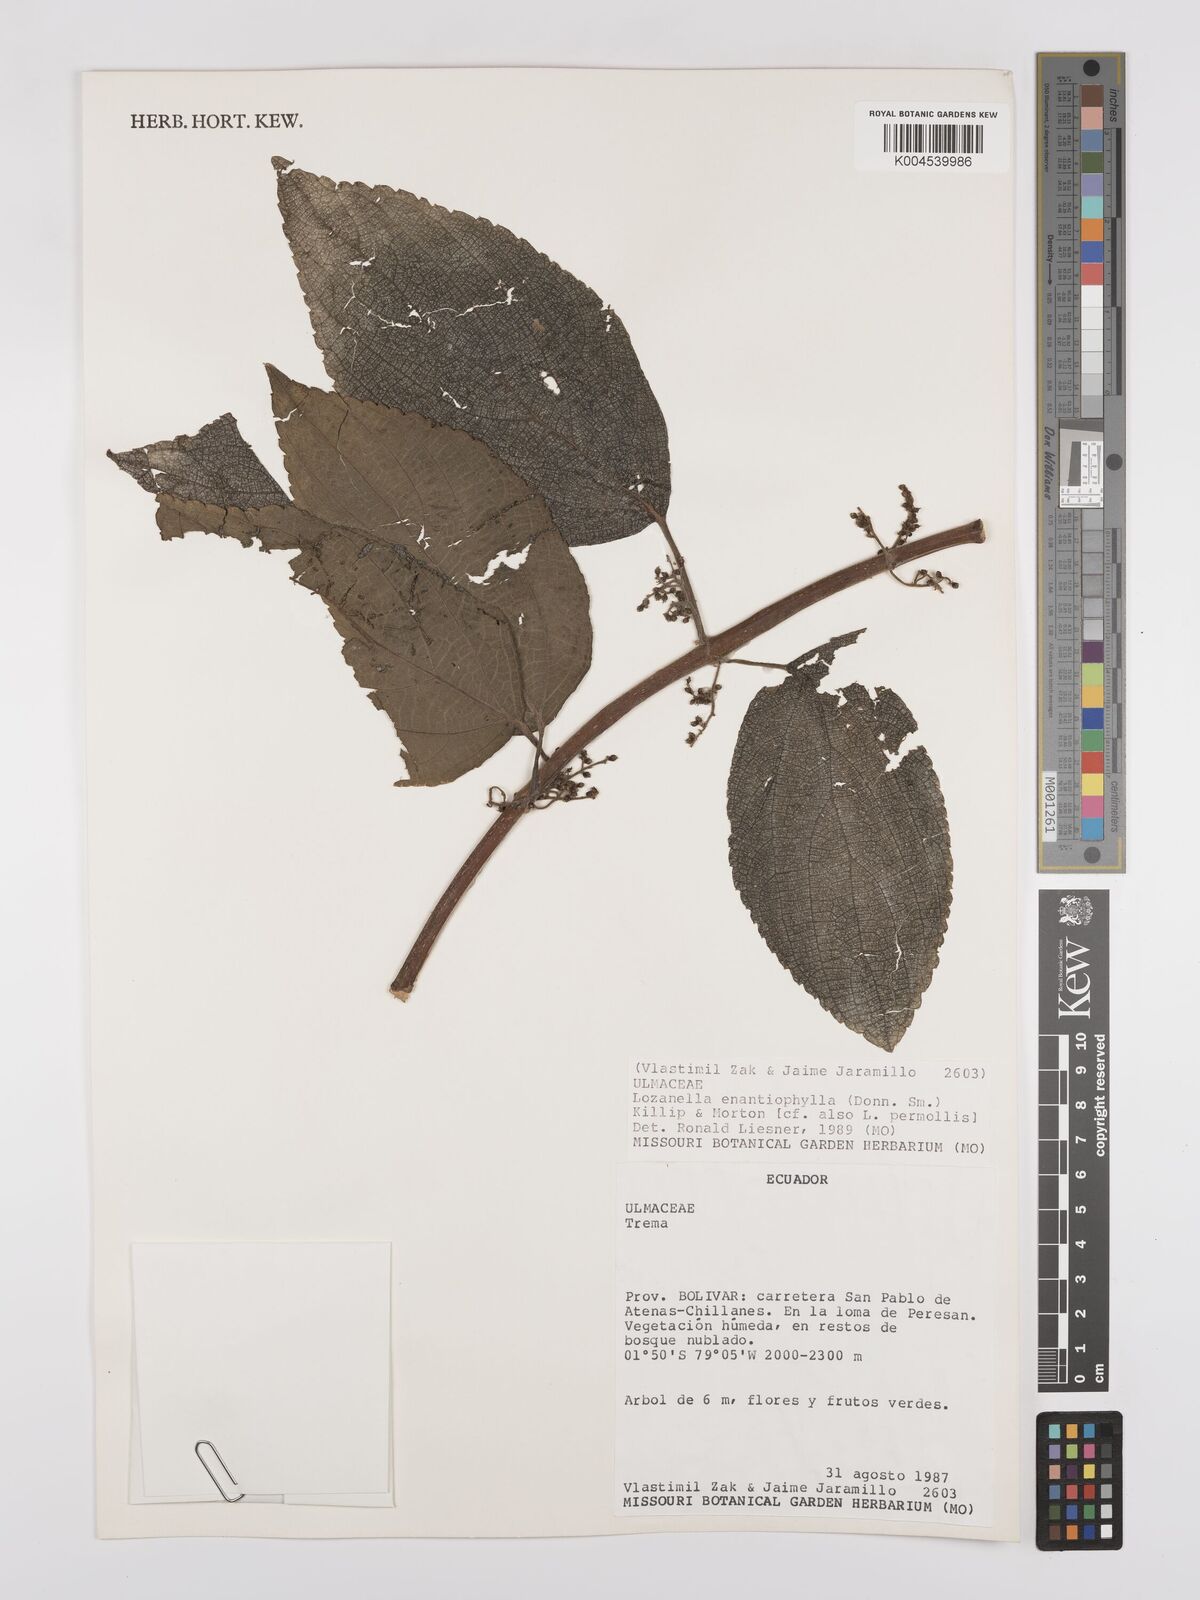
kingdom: Plantae
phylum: Tracheophyta
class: Magnoliopsida
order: Rosales
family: Cannabaceae
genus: Lozanella
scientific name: Lozanella enantiophylla
